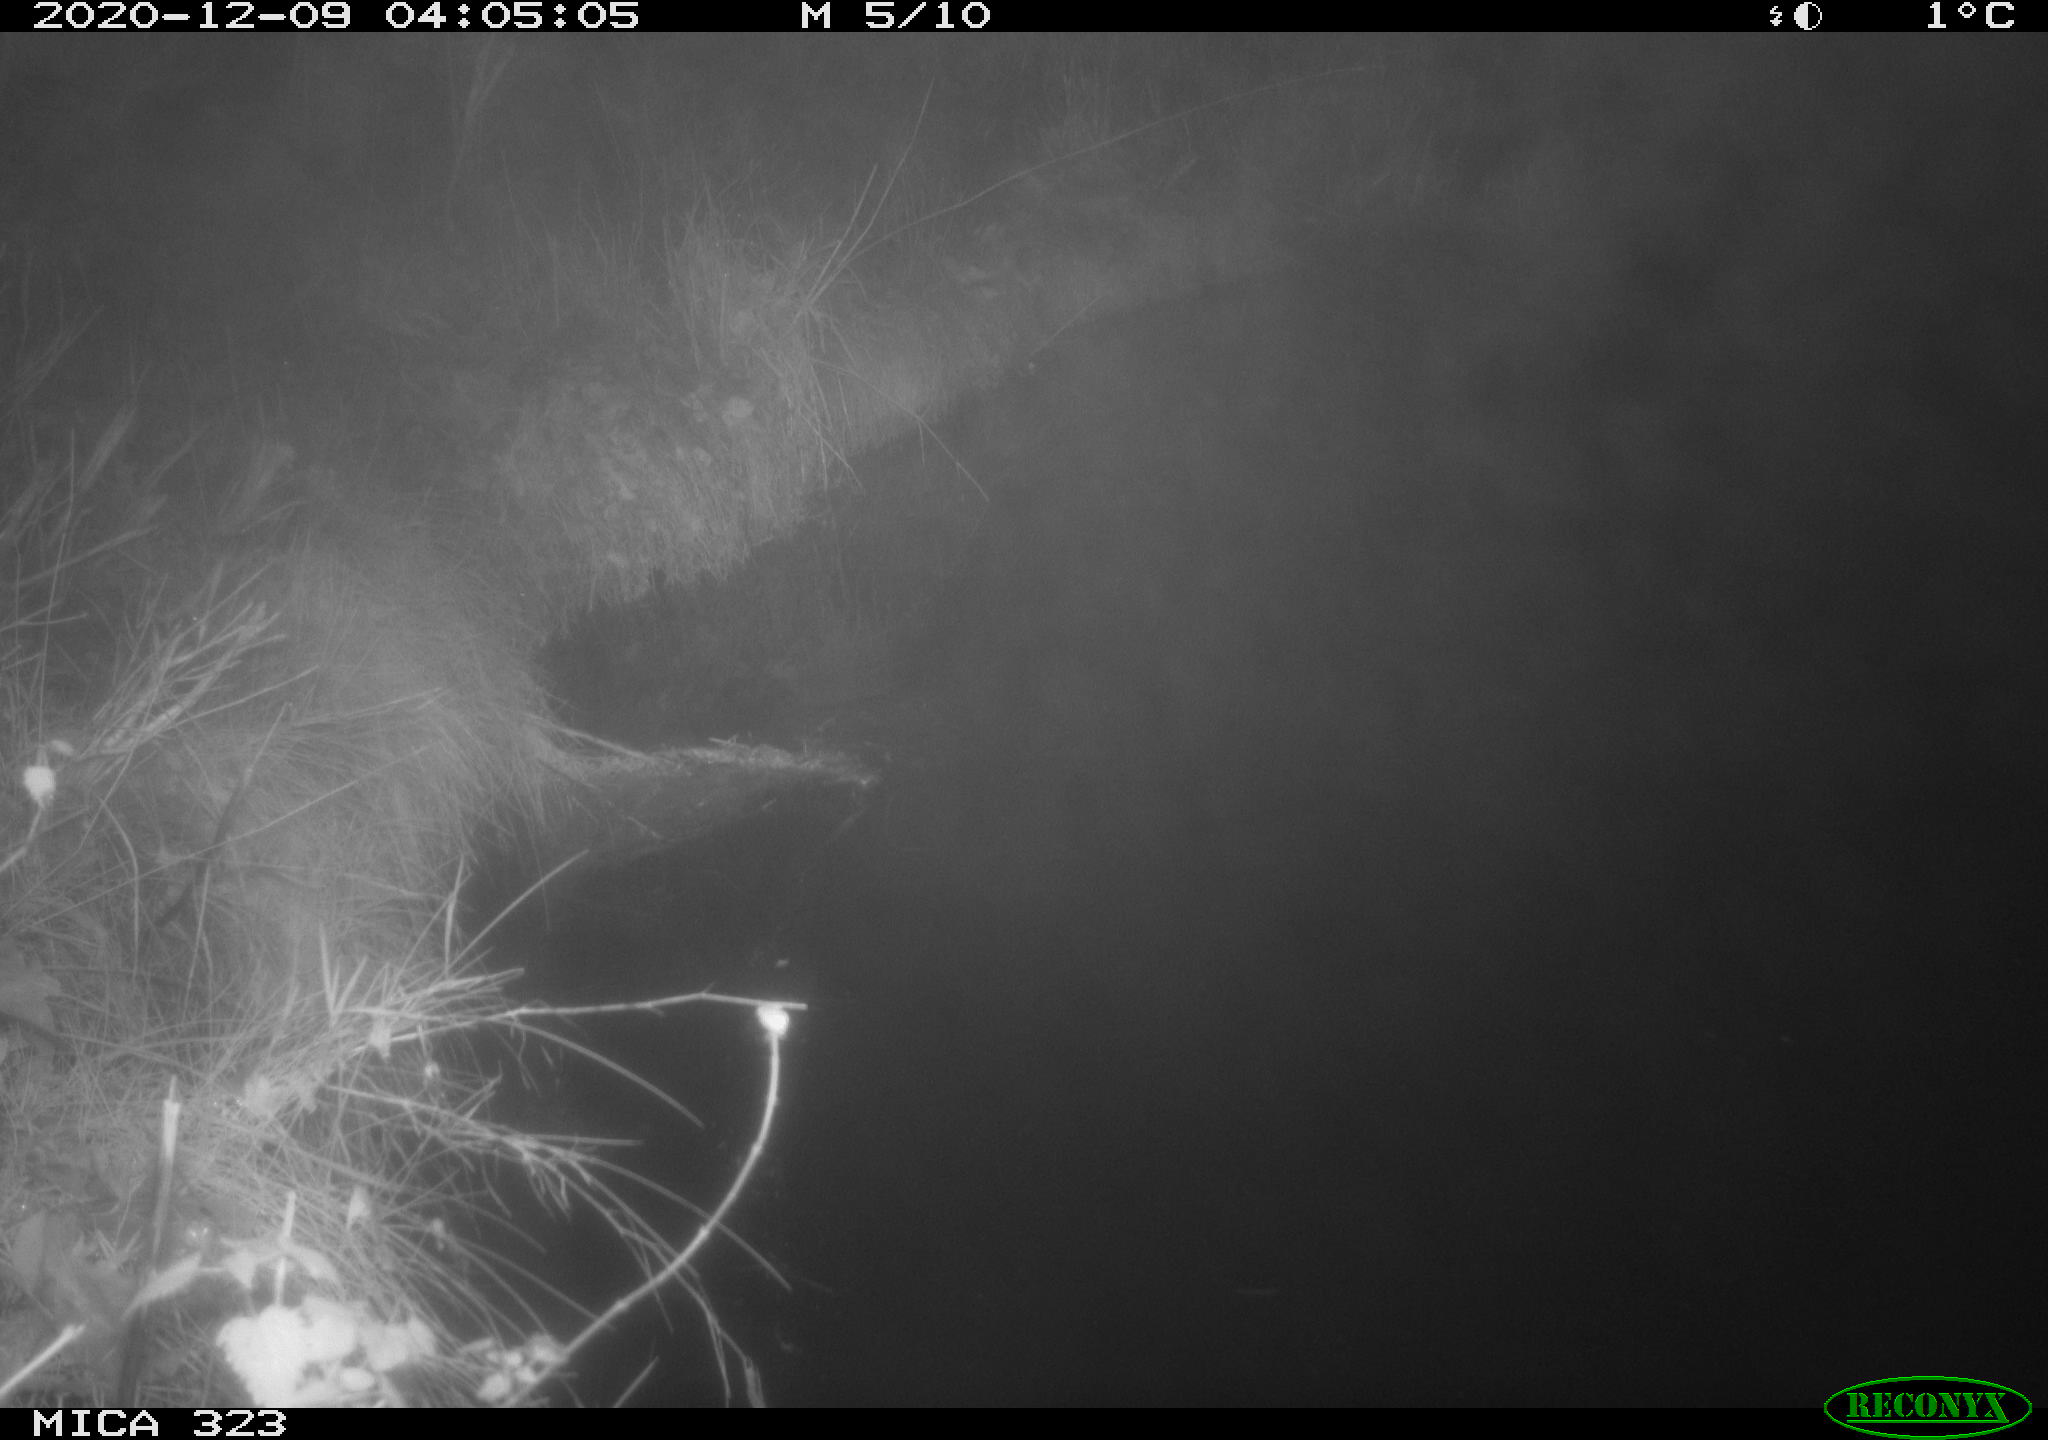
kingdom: Animalia
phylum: Chordata
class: Mammalia
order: Rodentia
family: Myocastoridae
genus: Myocastor
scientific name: Myocastor coypus
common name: Coypu
